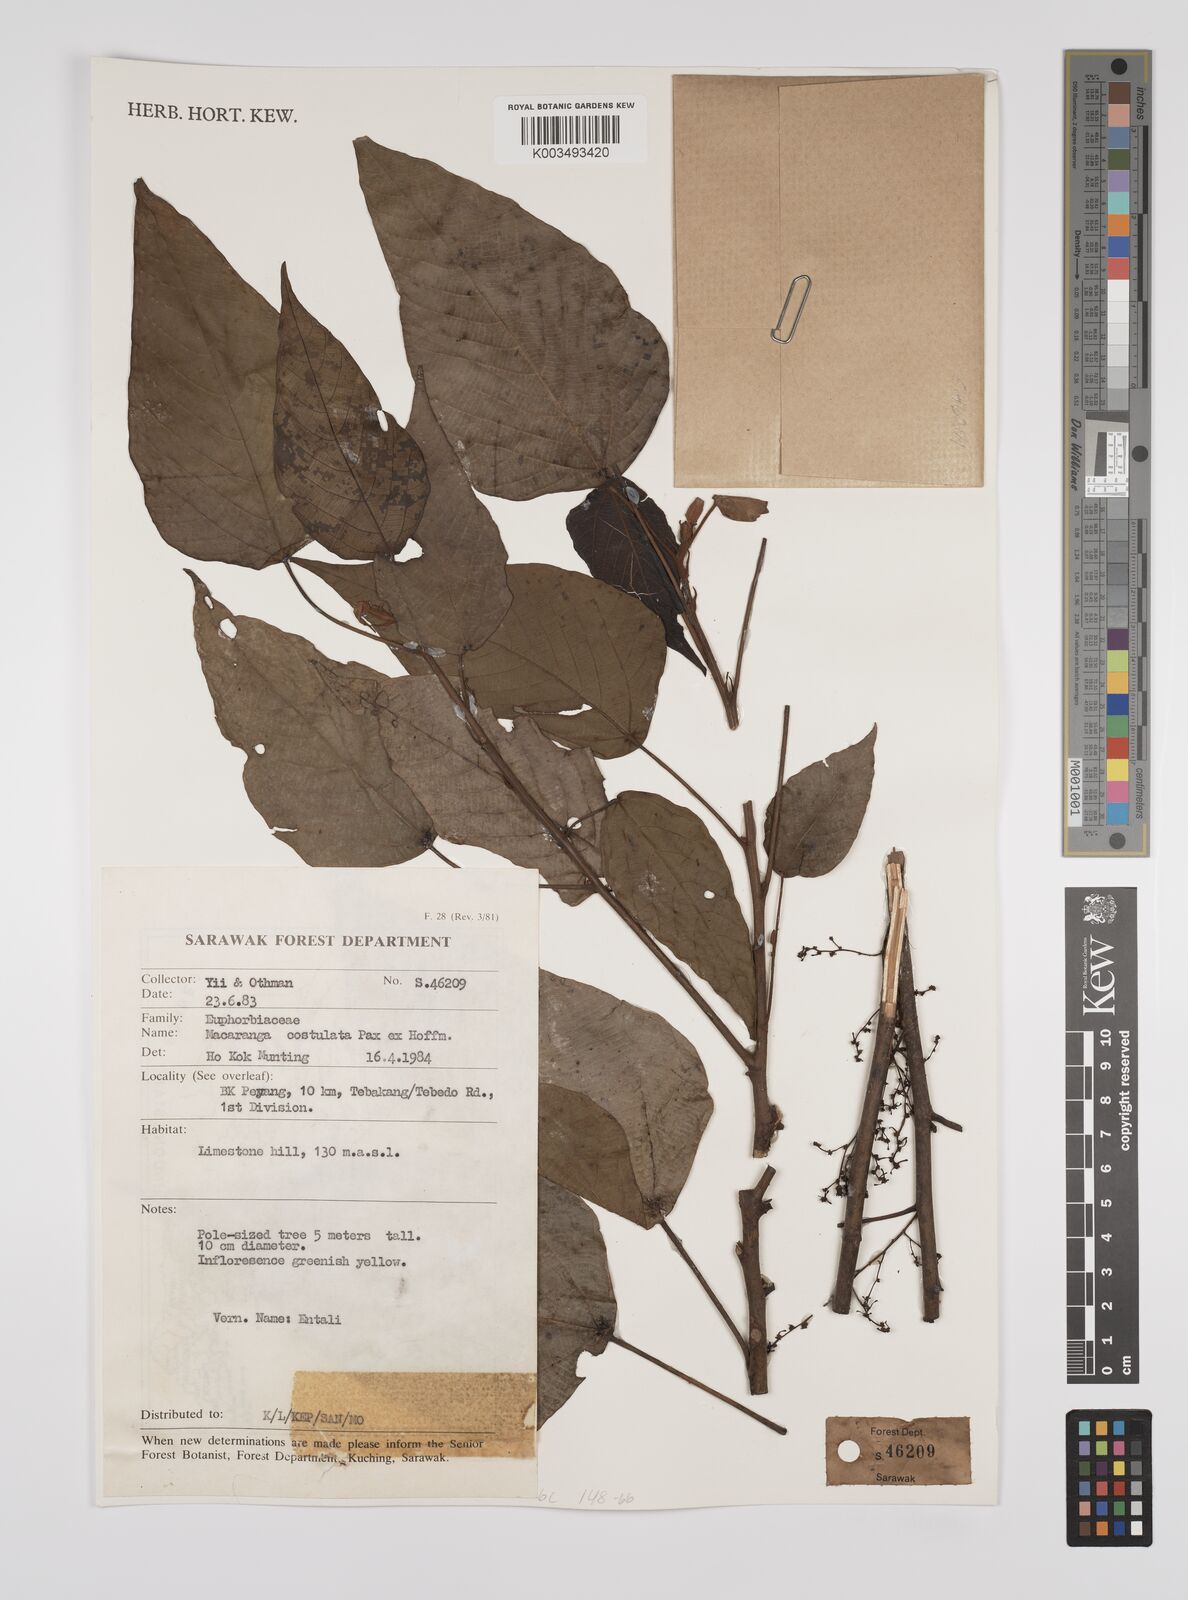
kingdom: Plantae
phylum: Tracheophyta
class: Magnoliopsida
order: Malpighiales
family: Euphorbiaceae
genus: Macaranga
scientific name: Macaranga costulata
